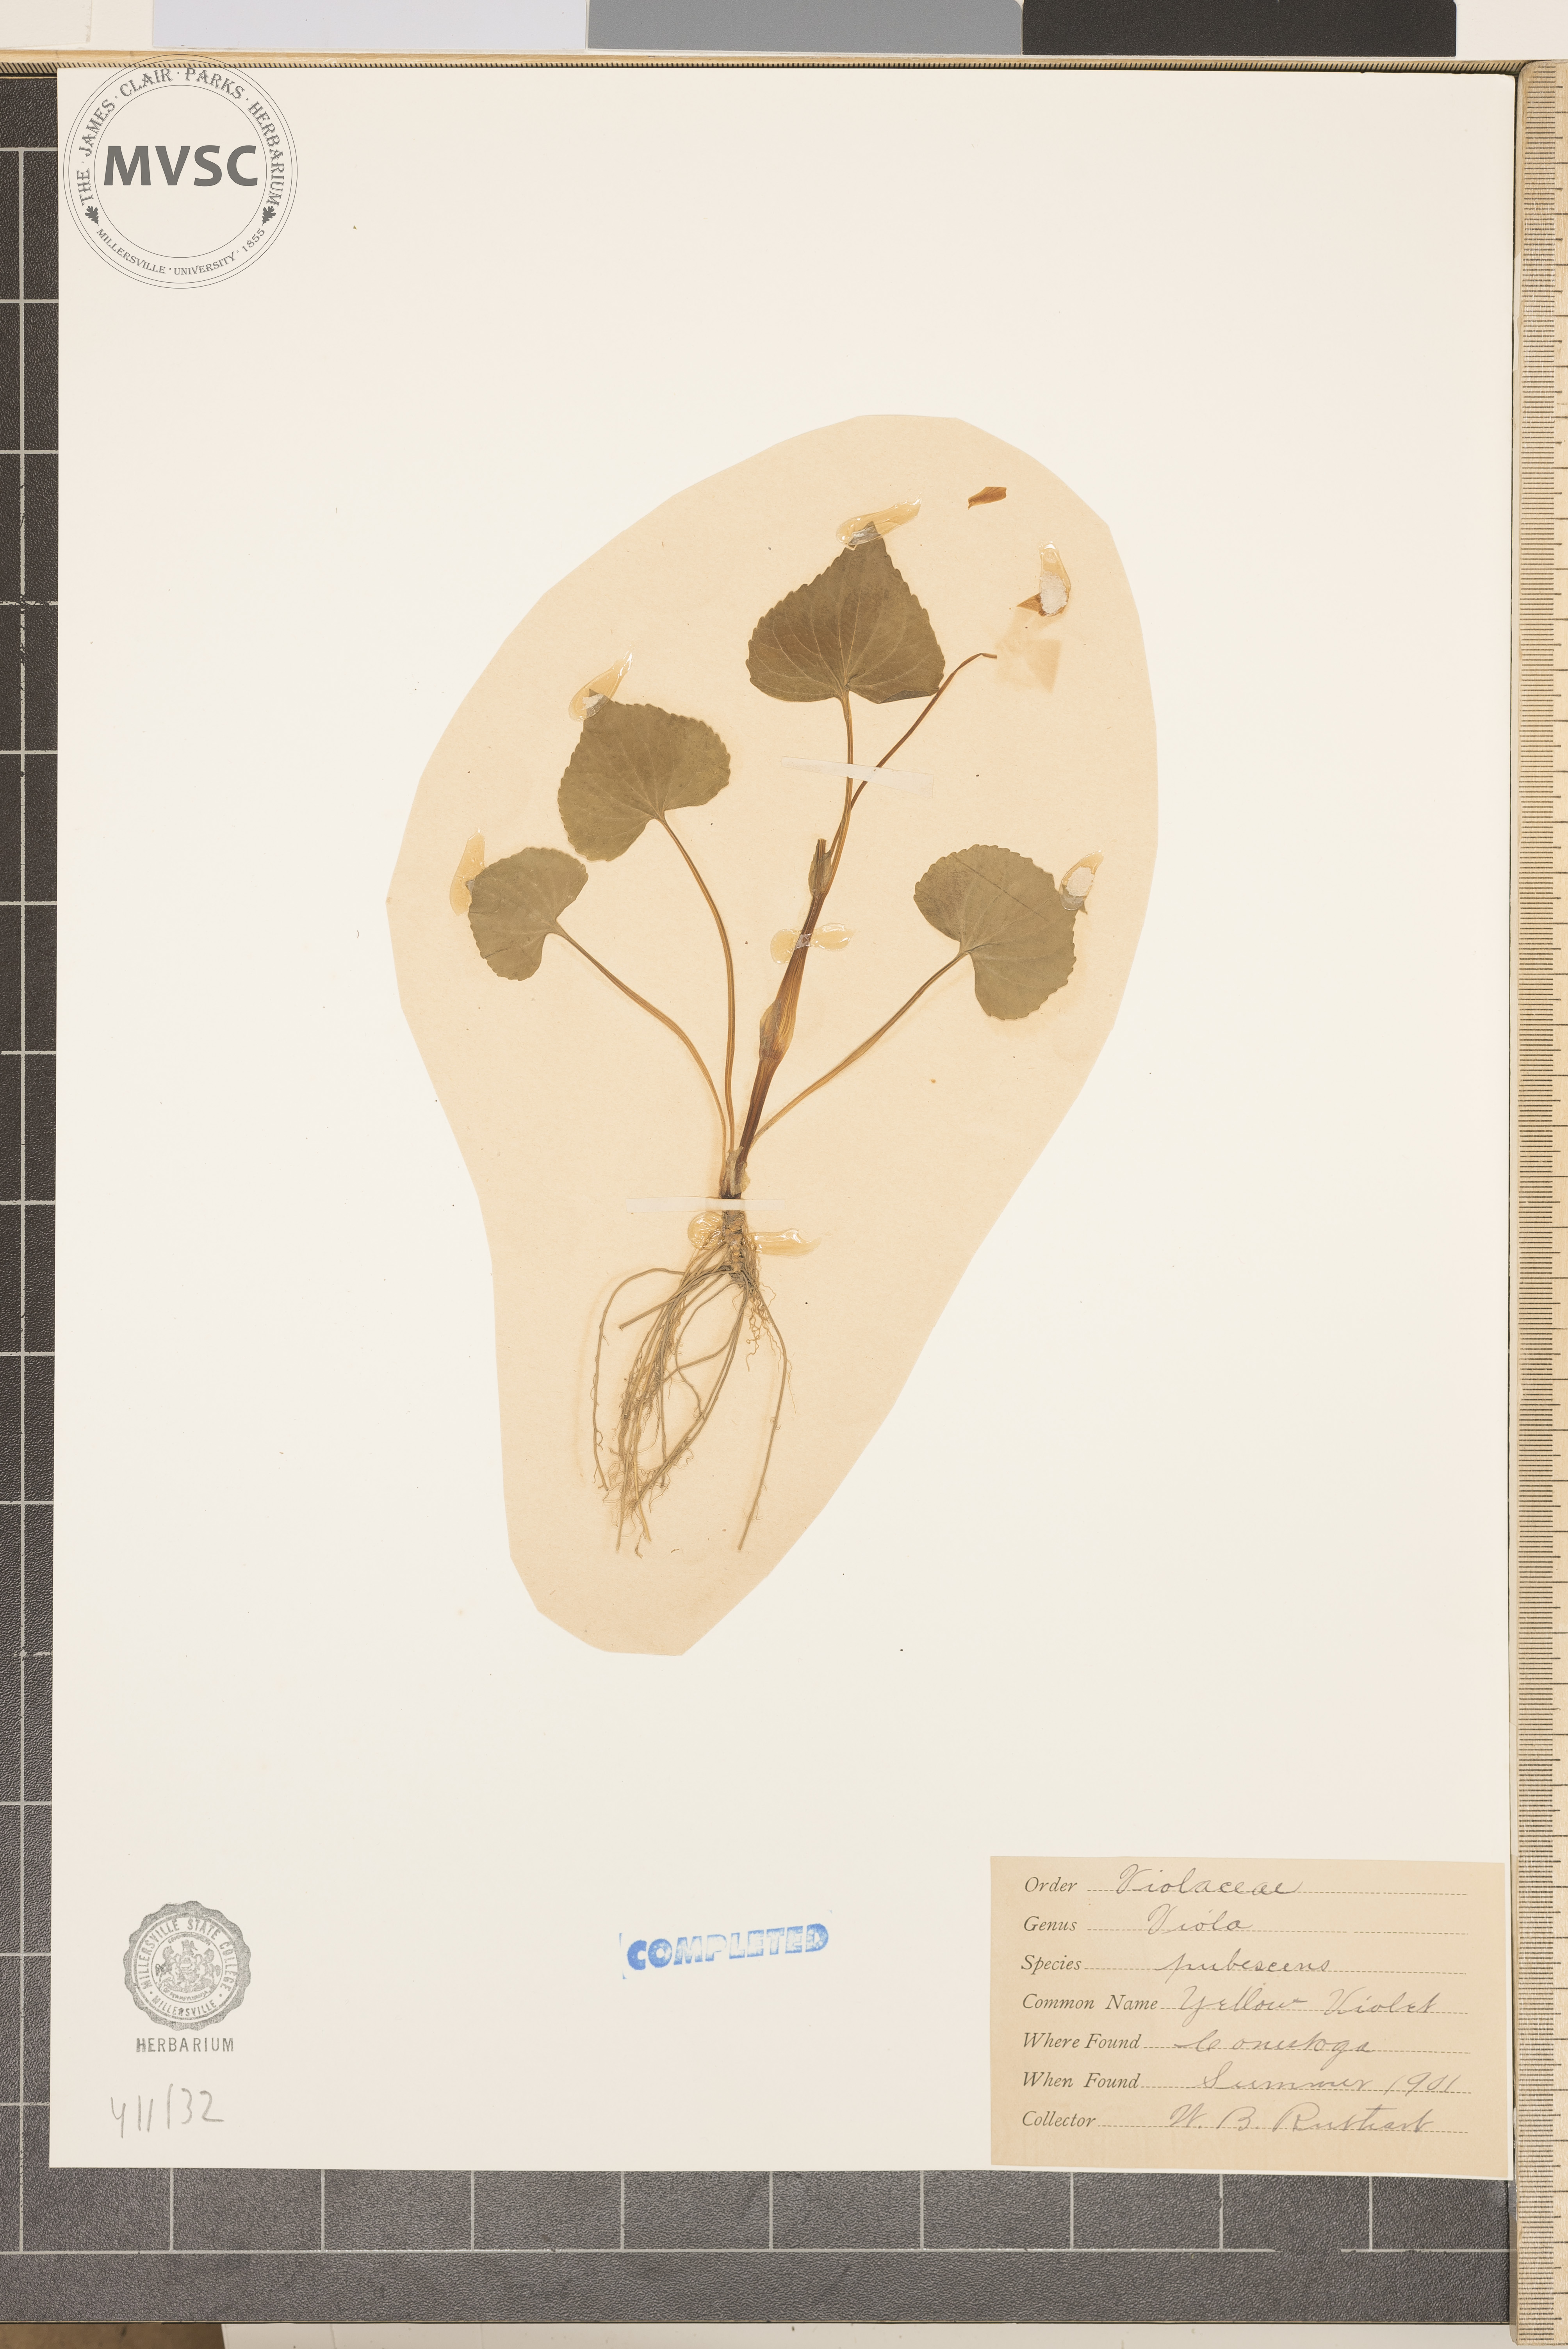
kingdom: Plantae
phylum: Tracheophyta
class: Magnoliopsida
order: Malpighiales
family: Violaceae
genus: Viola
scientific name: Viola pubescens
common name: Yellow forest violet
